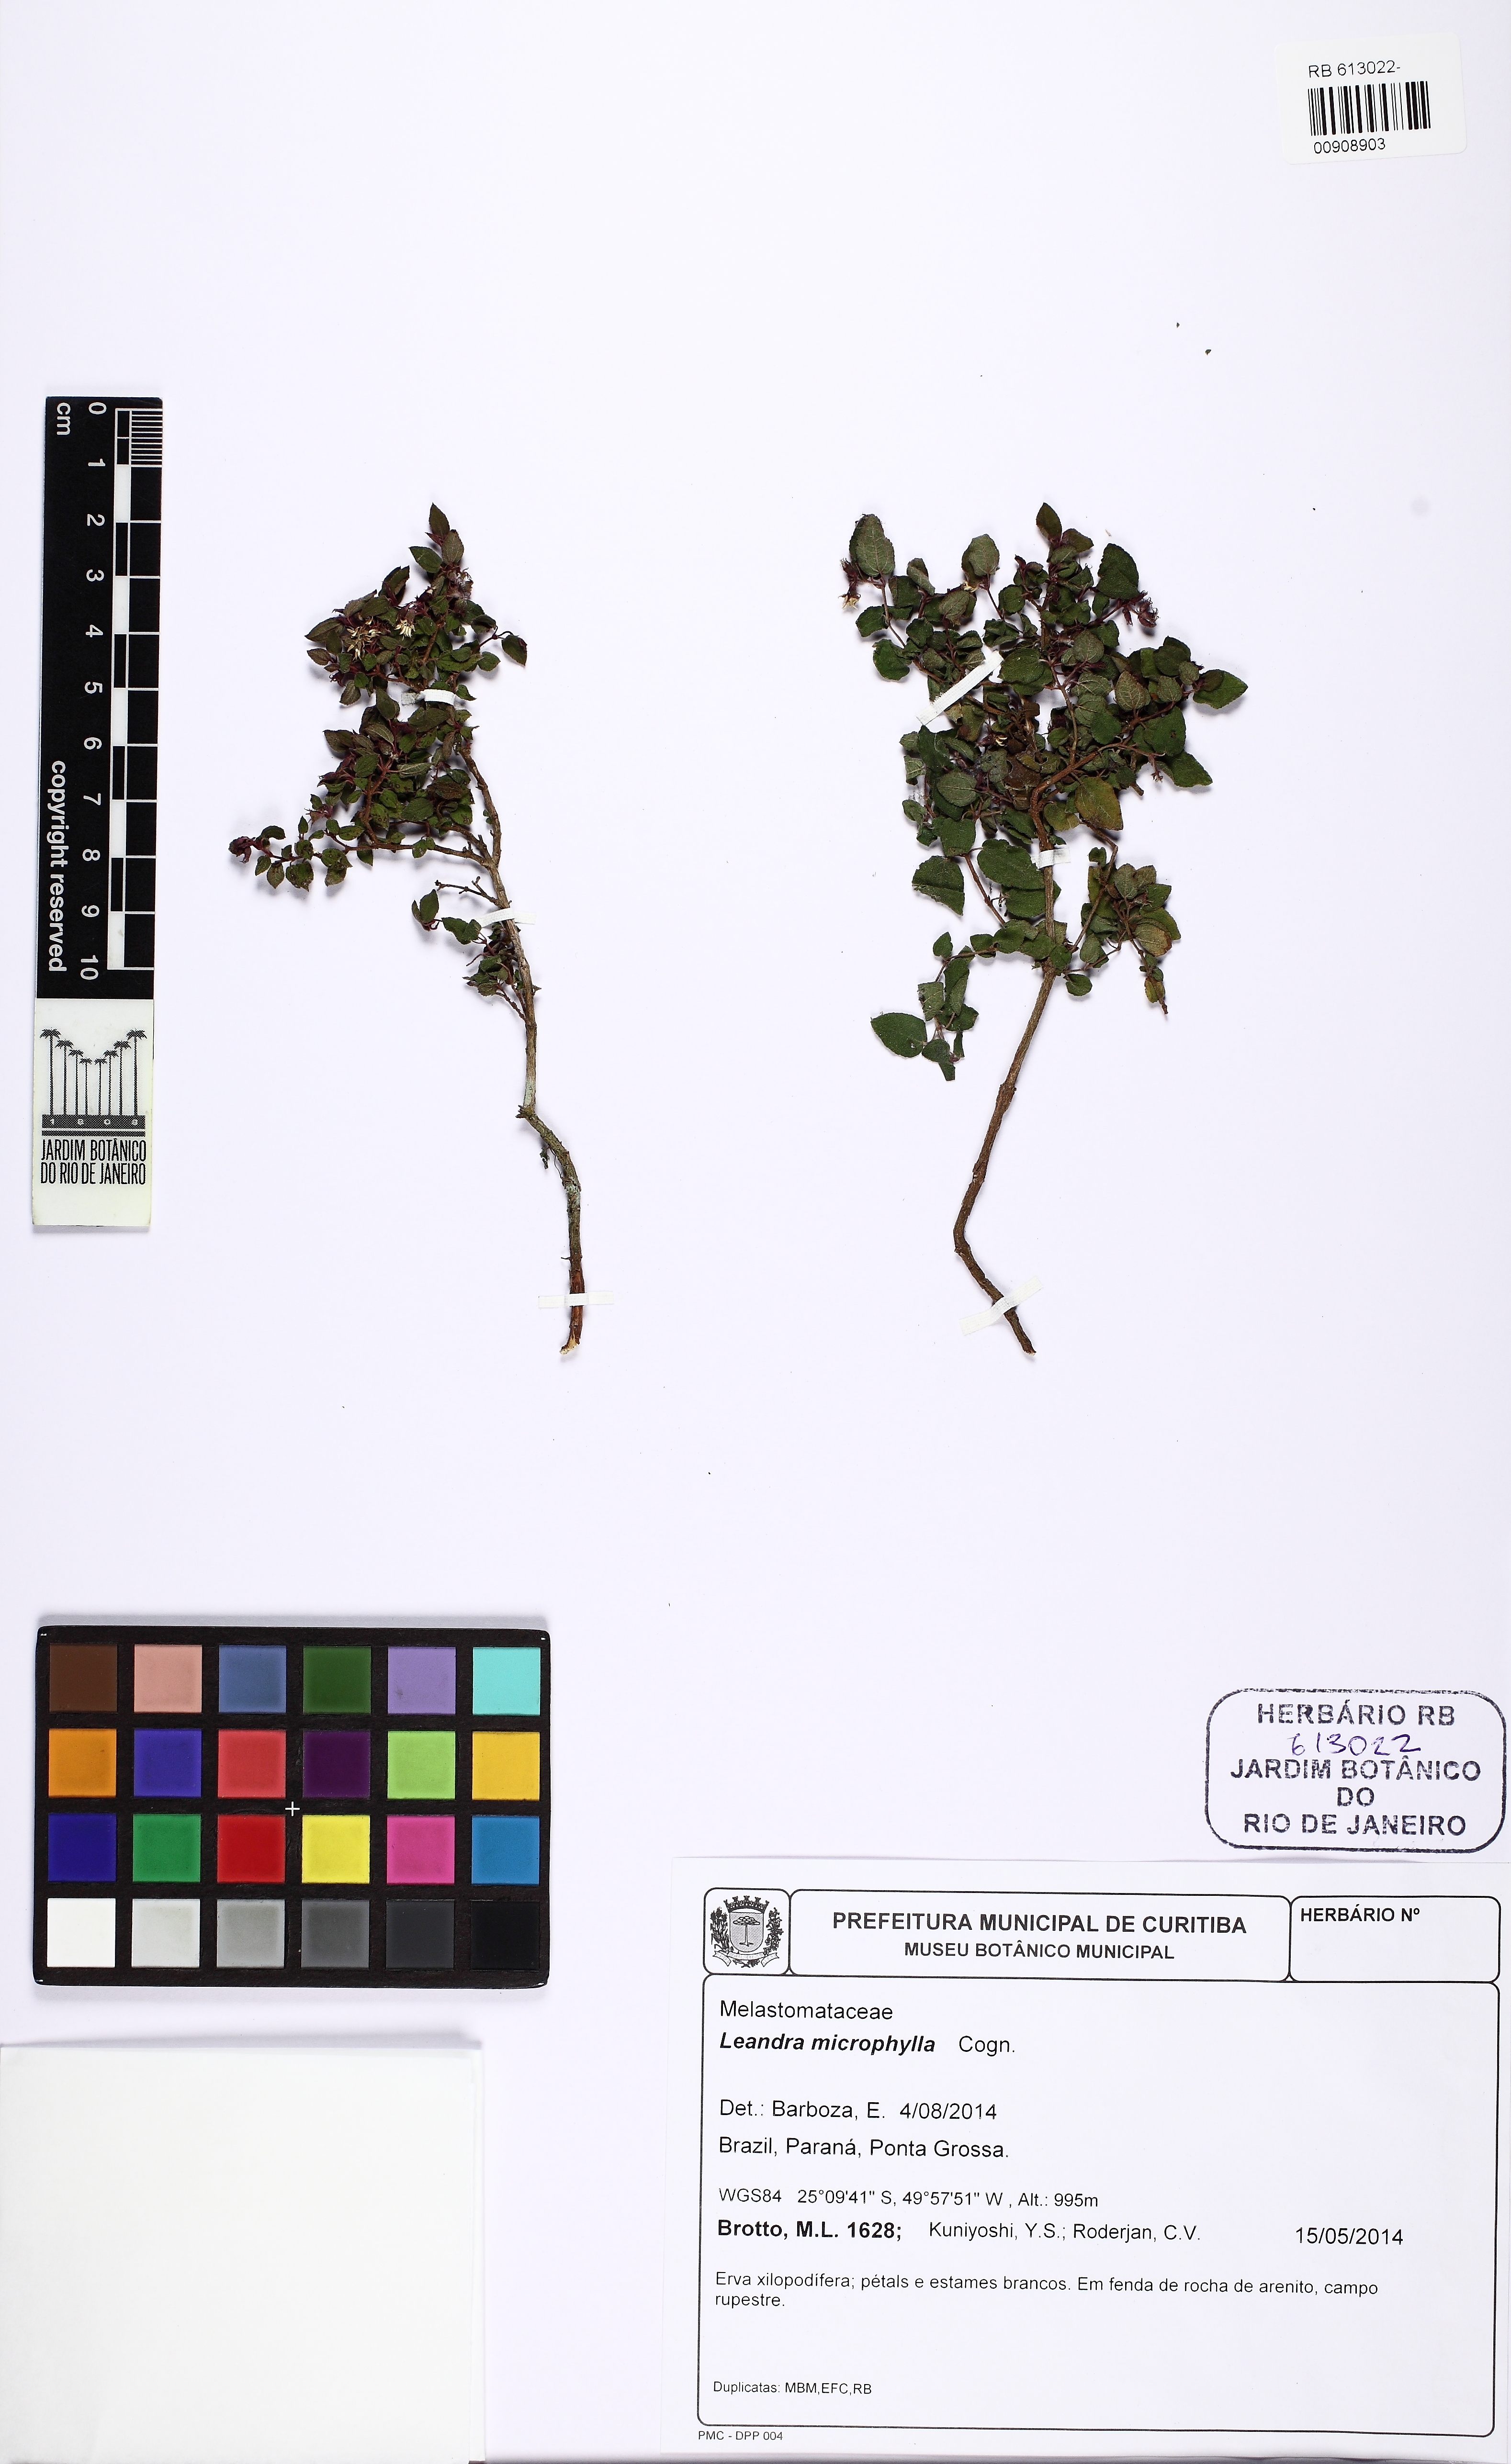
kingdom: Plantae
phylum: Tracheophyta
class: Magnoliopsida
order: Myrtales
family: Melastomataceae
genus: Miconia
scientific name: Miconia dusenii
